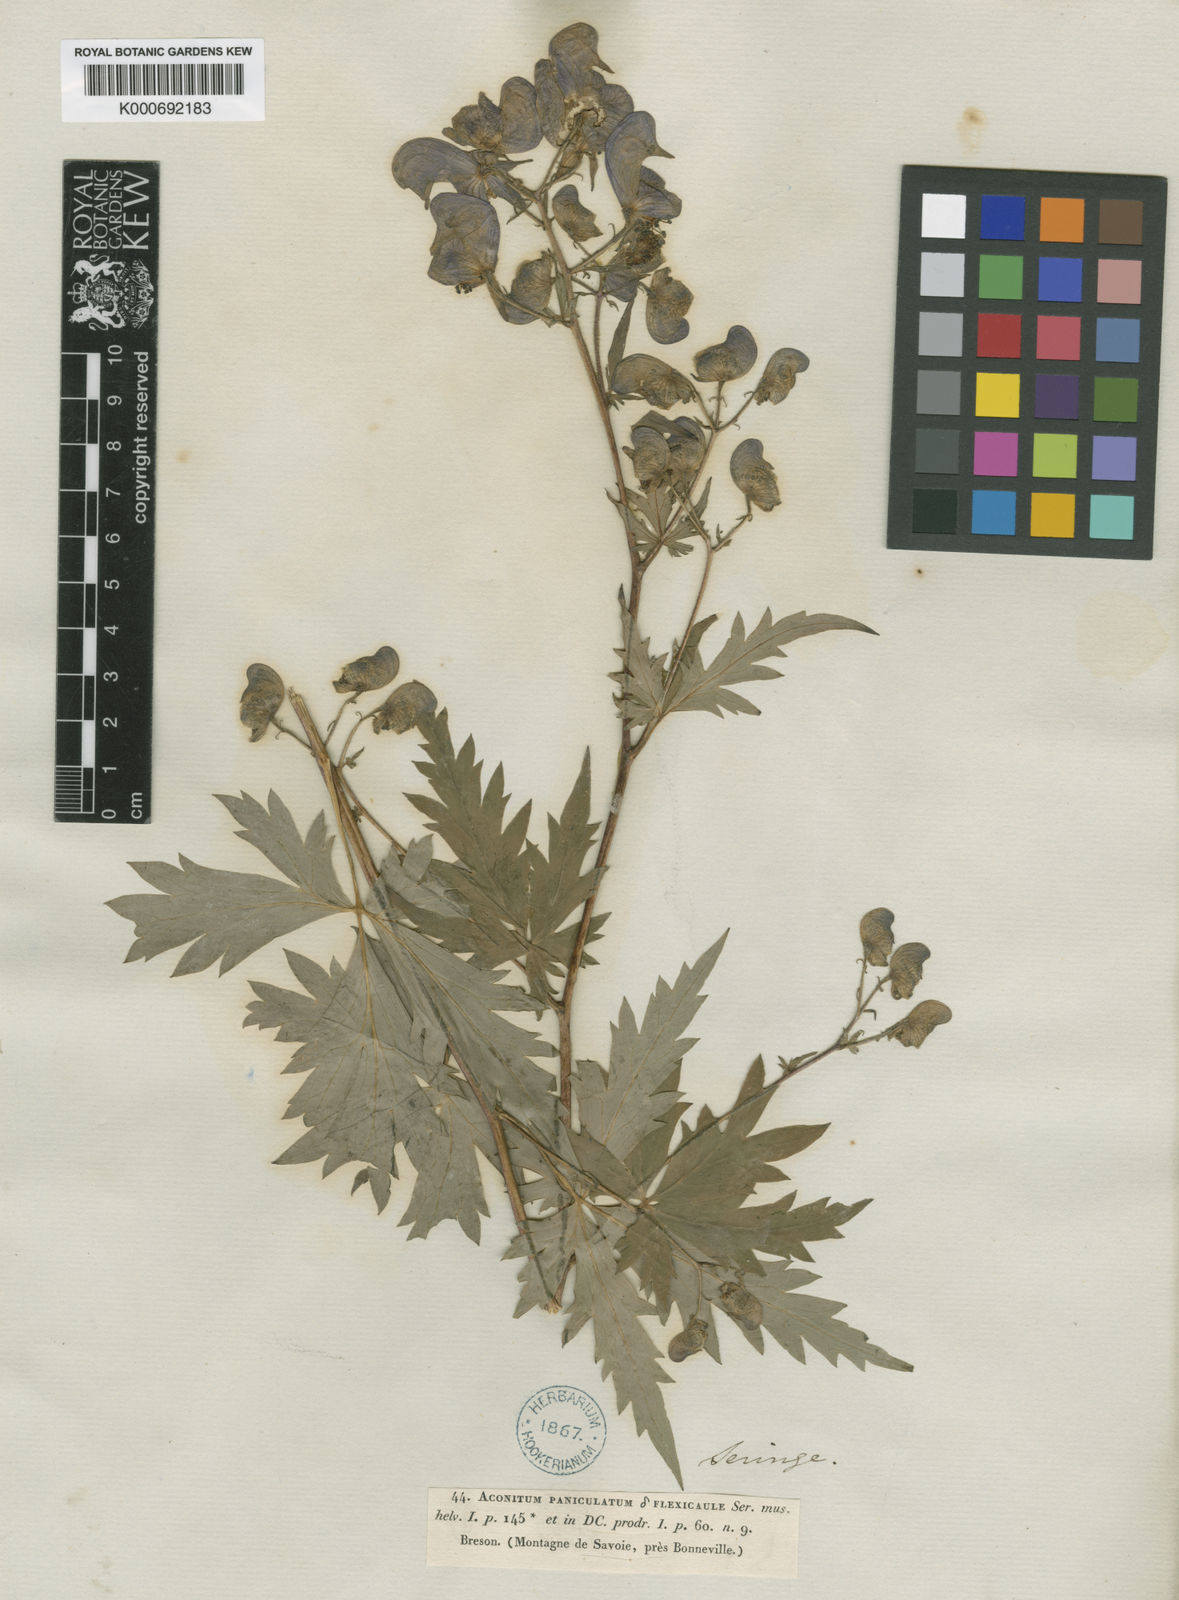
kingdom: Plantae
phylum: Tracheophyta
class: Magnoliopsida
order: Ranunculales
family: Ranunculaceae
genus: Aconitum
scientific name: Aconitum
